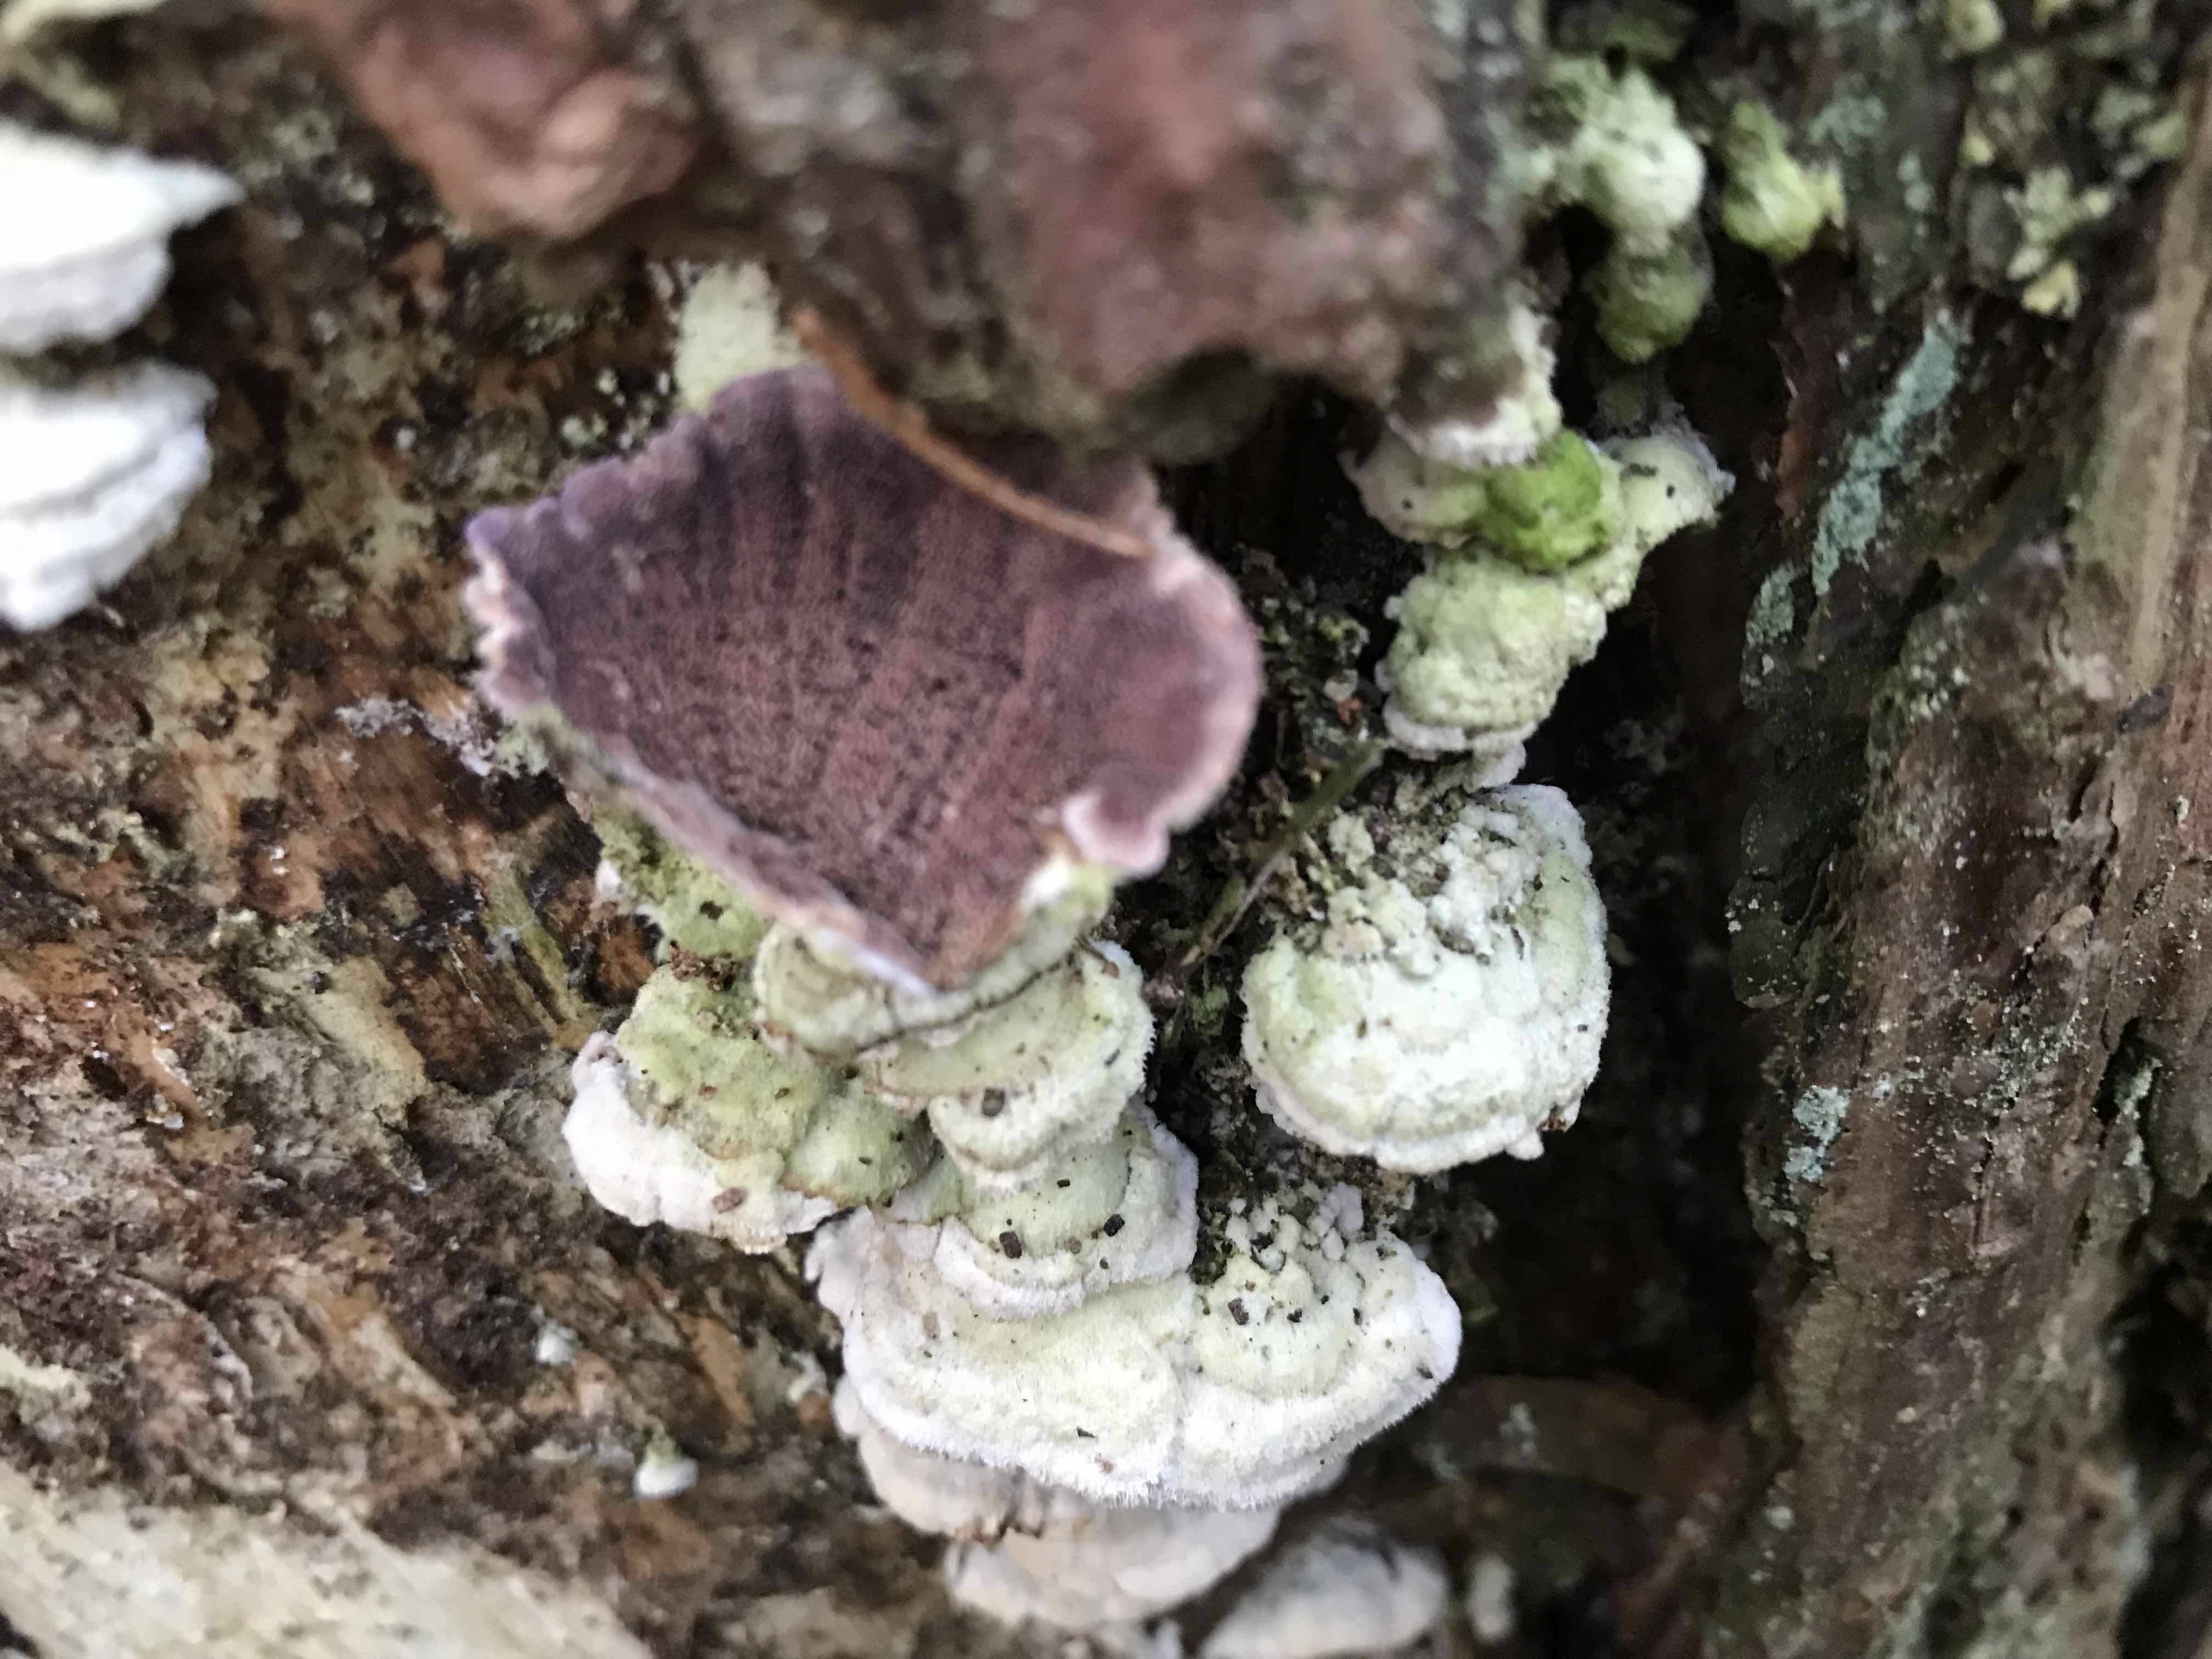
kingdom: Fungi
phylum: Basidiomycota
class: Agaricomycetes
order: Hymenochaetales
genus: Trichaptum
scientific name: Trichaptum abietinum
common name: almindelig violporesvamp
